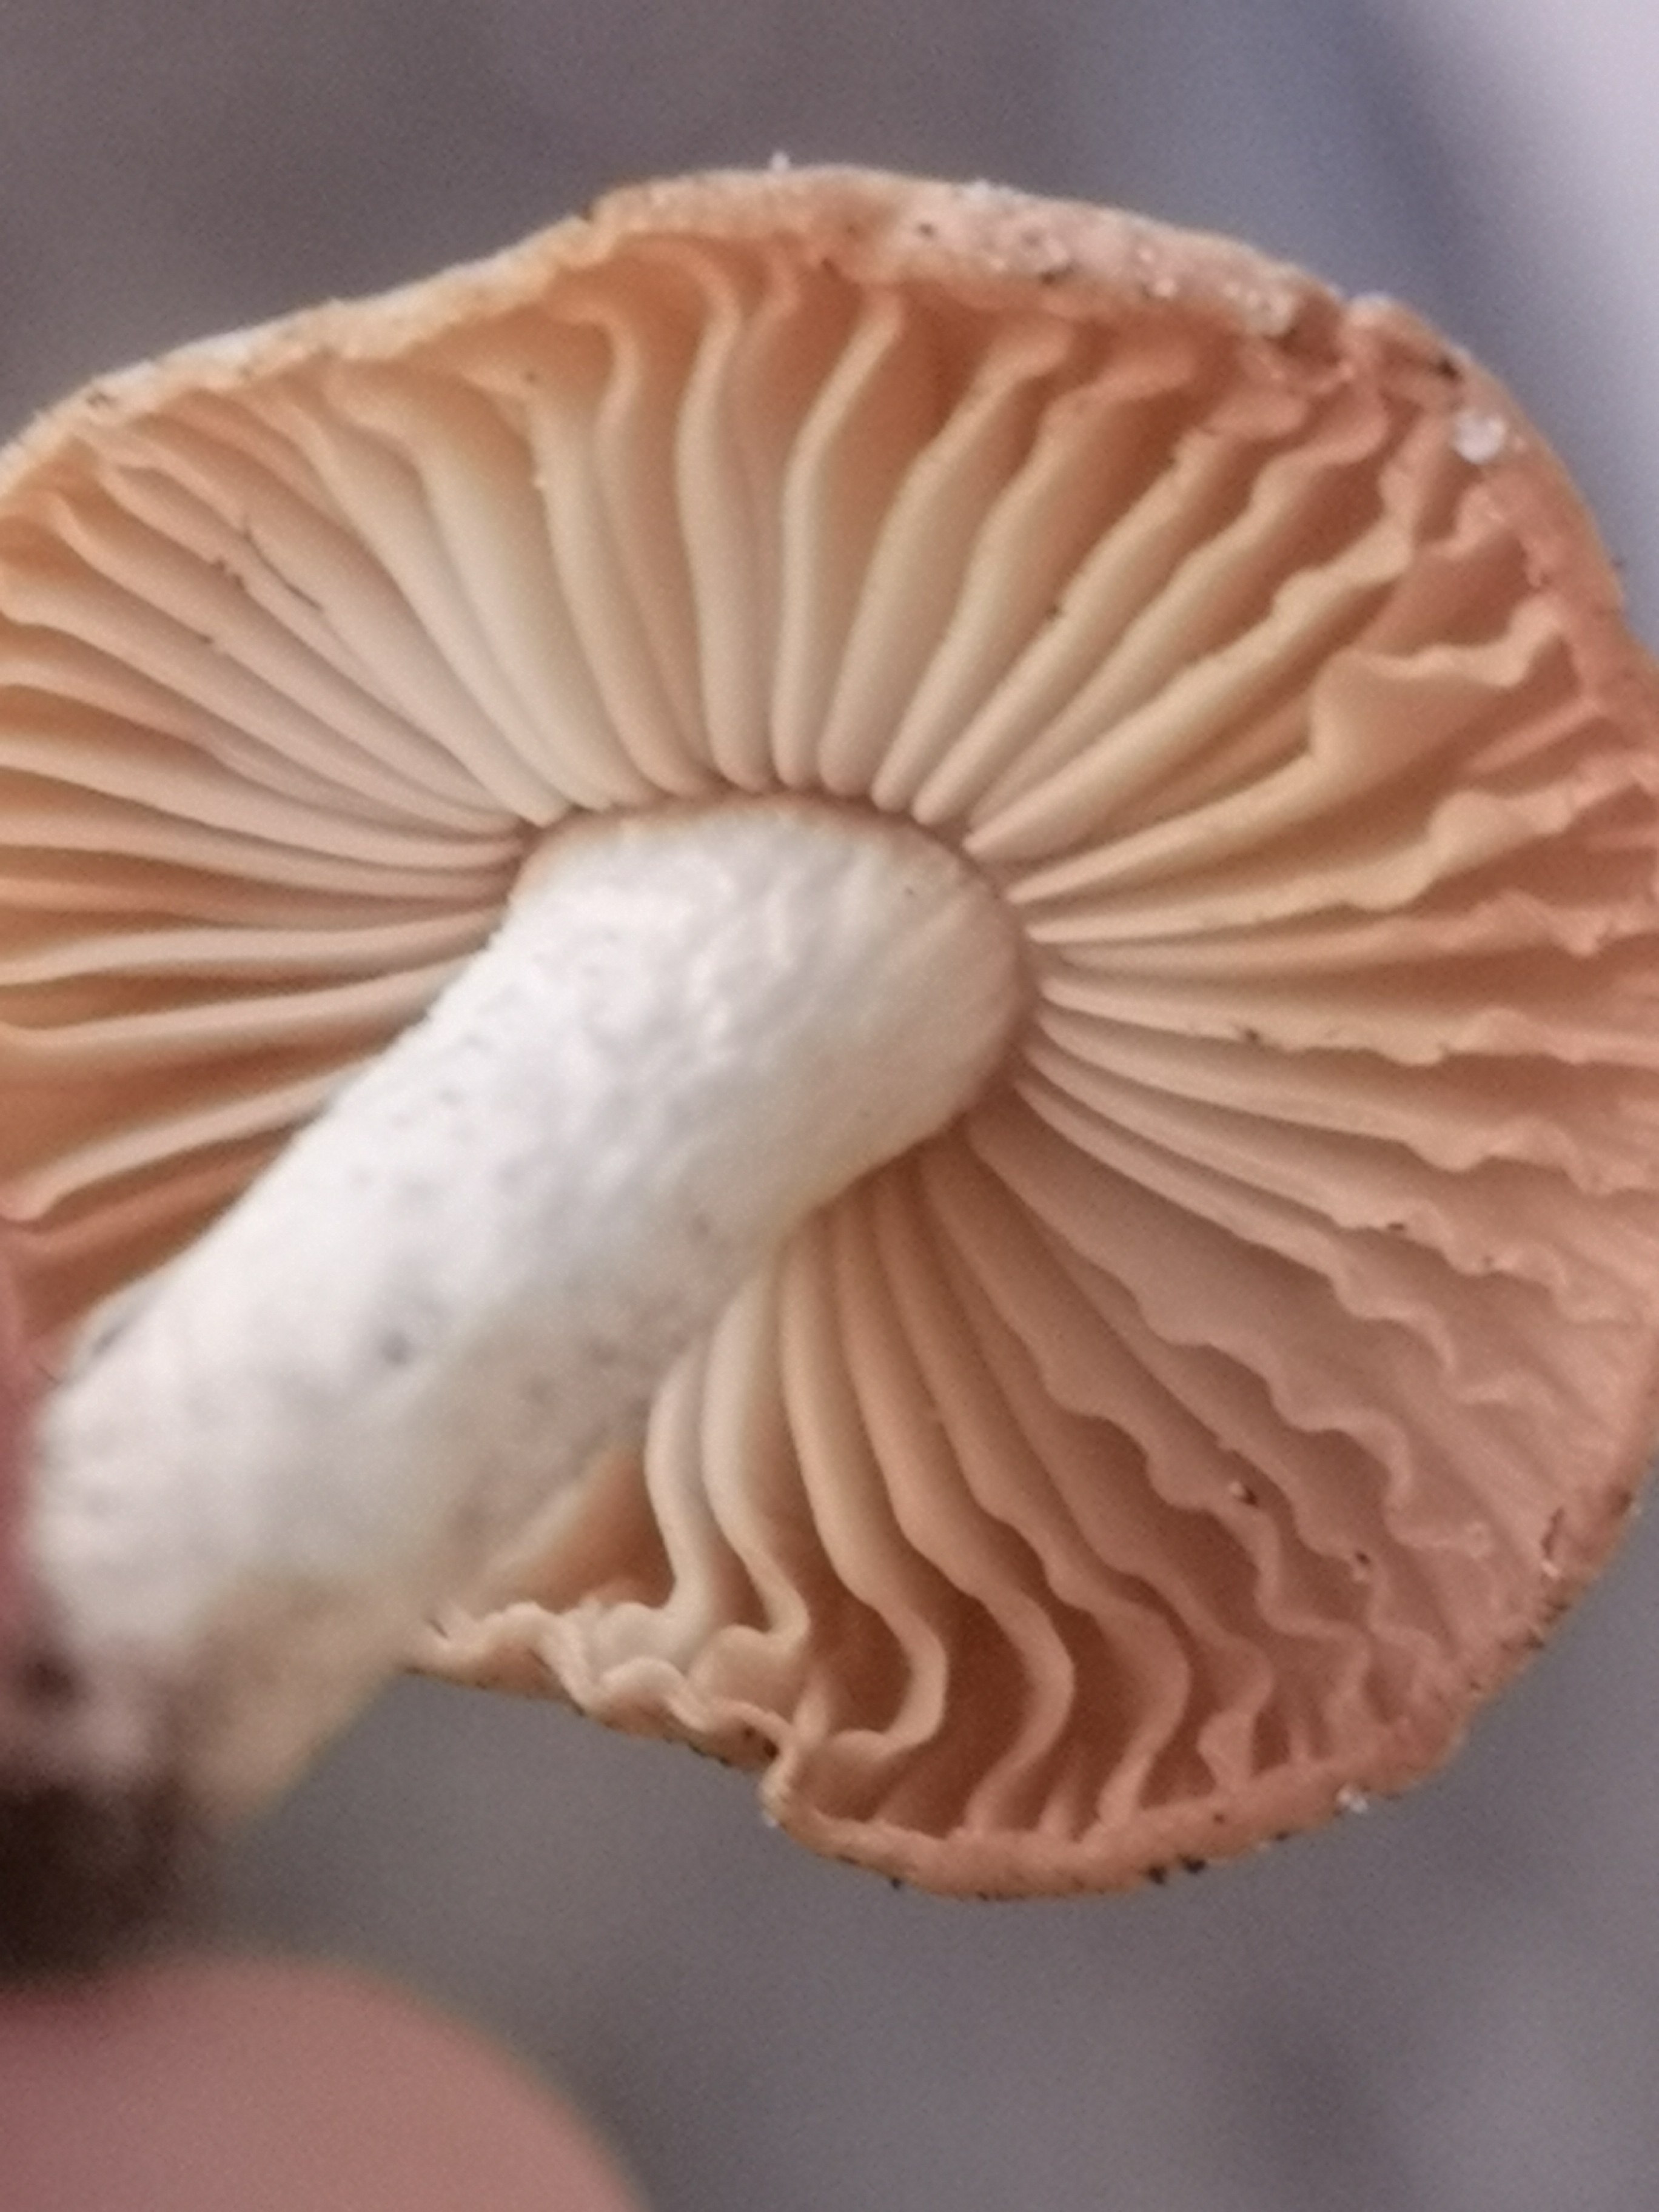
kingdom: Fungi
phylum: Basidiomycota
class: Agaricomycetes
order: Agaricales
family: Marasmiaceae
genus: Marasmius
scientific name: Marasmius oreades
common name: elledans-bruskhat
